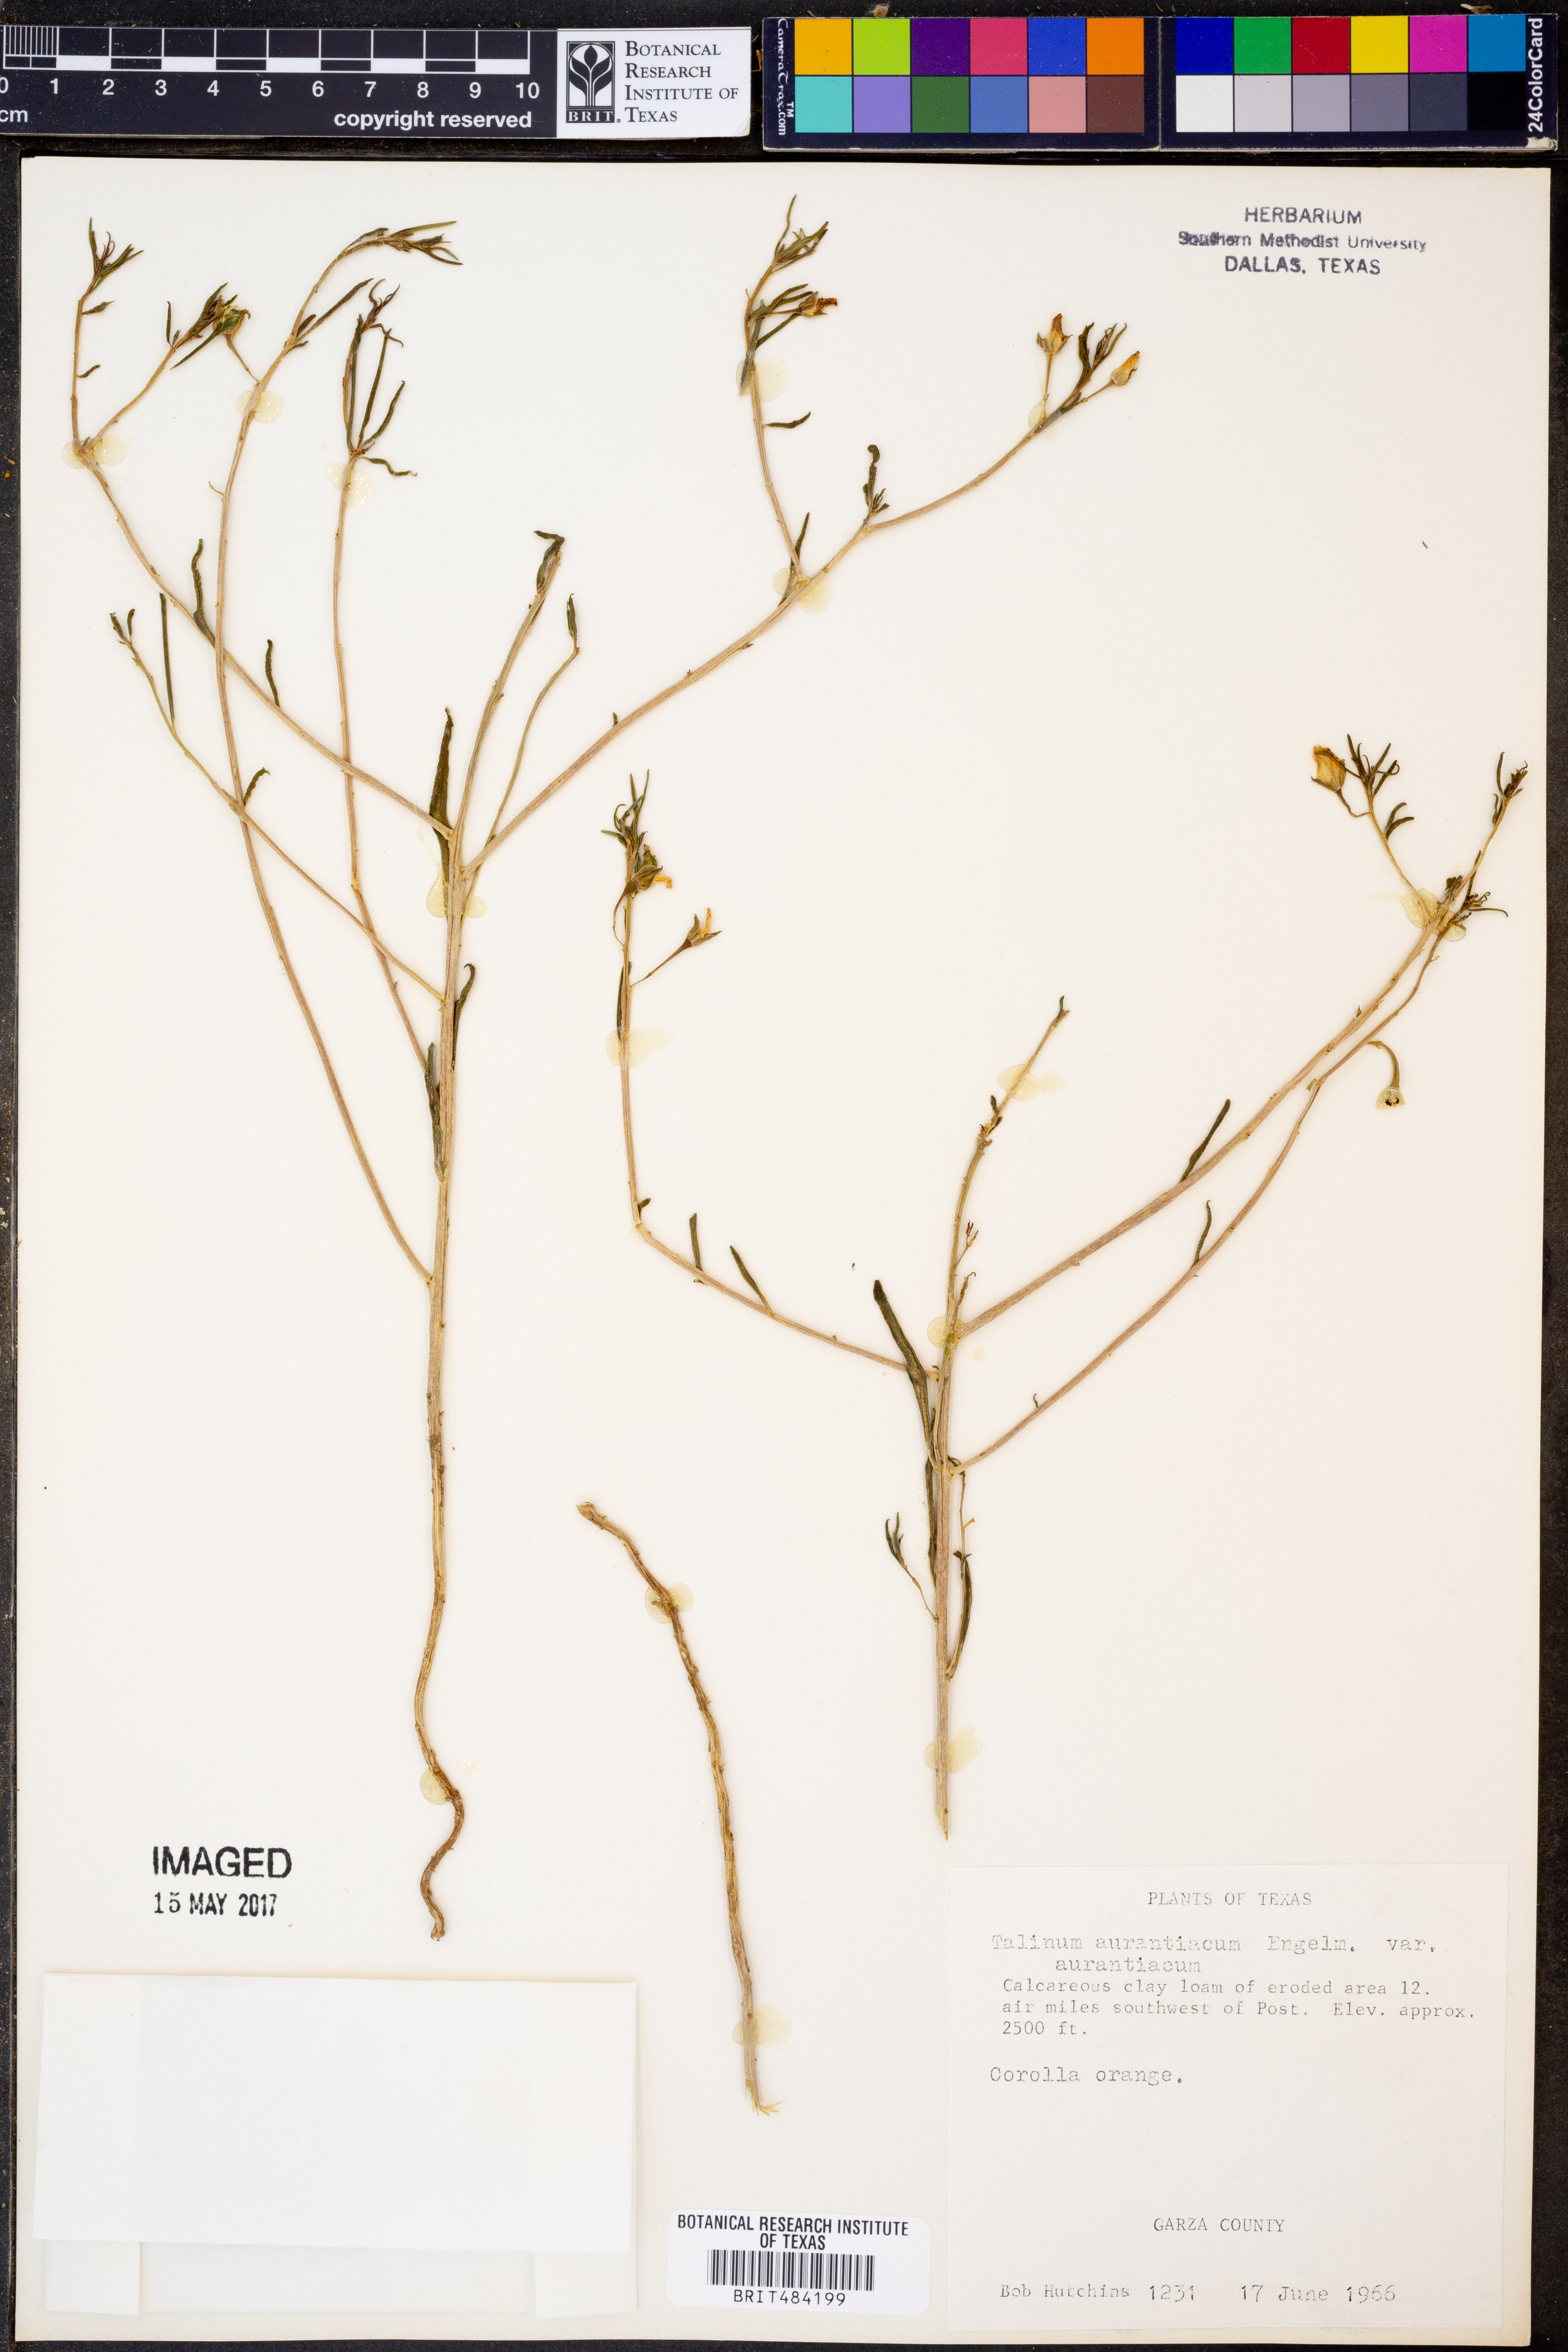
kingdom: Plantae
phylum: Tracheophyta
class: Magnoliopsida
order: Caryophyllales
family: Montiaceae
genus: Phemeranthus
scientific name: Phemeranthus aurantiacus
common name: Orange fameflower
